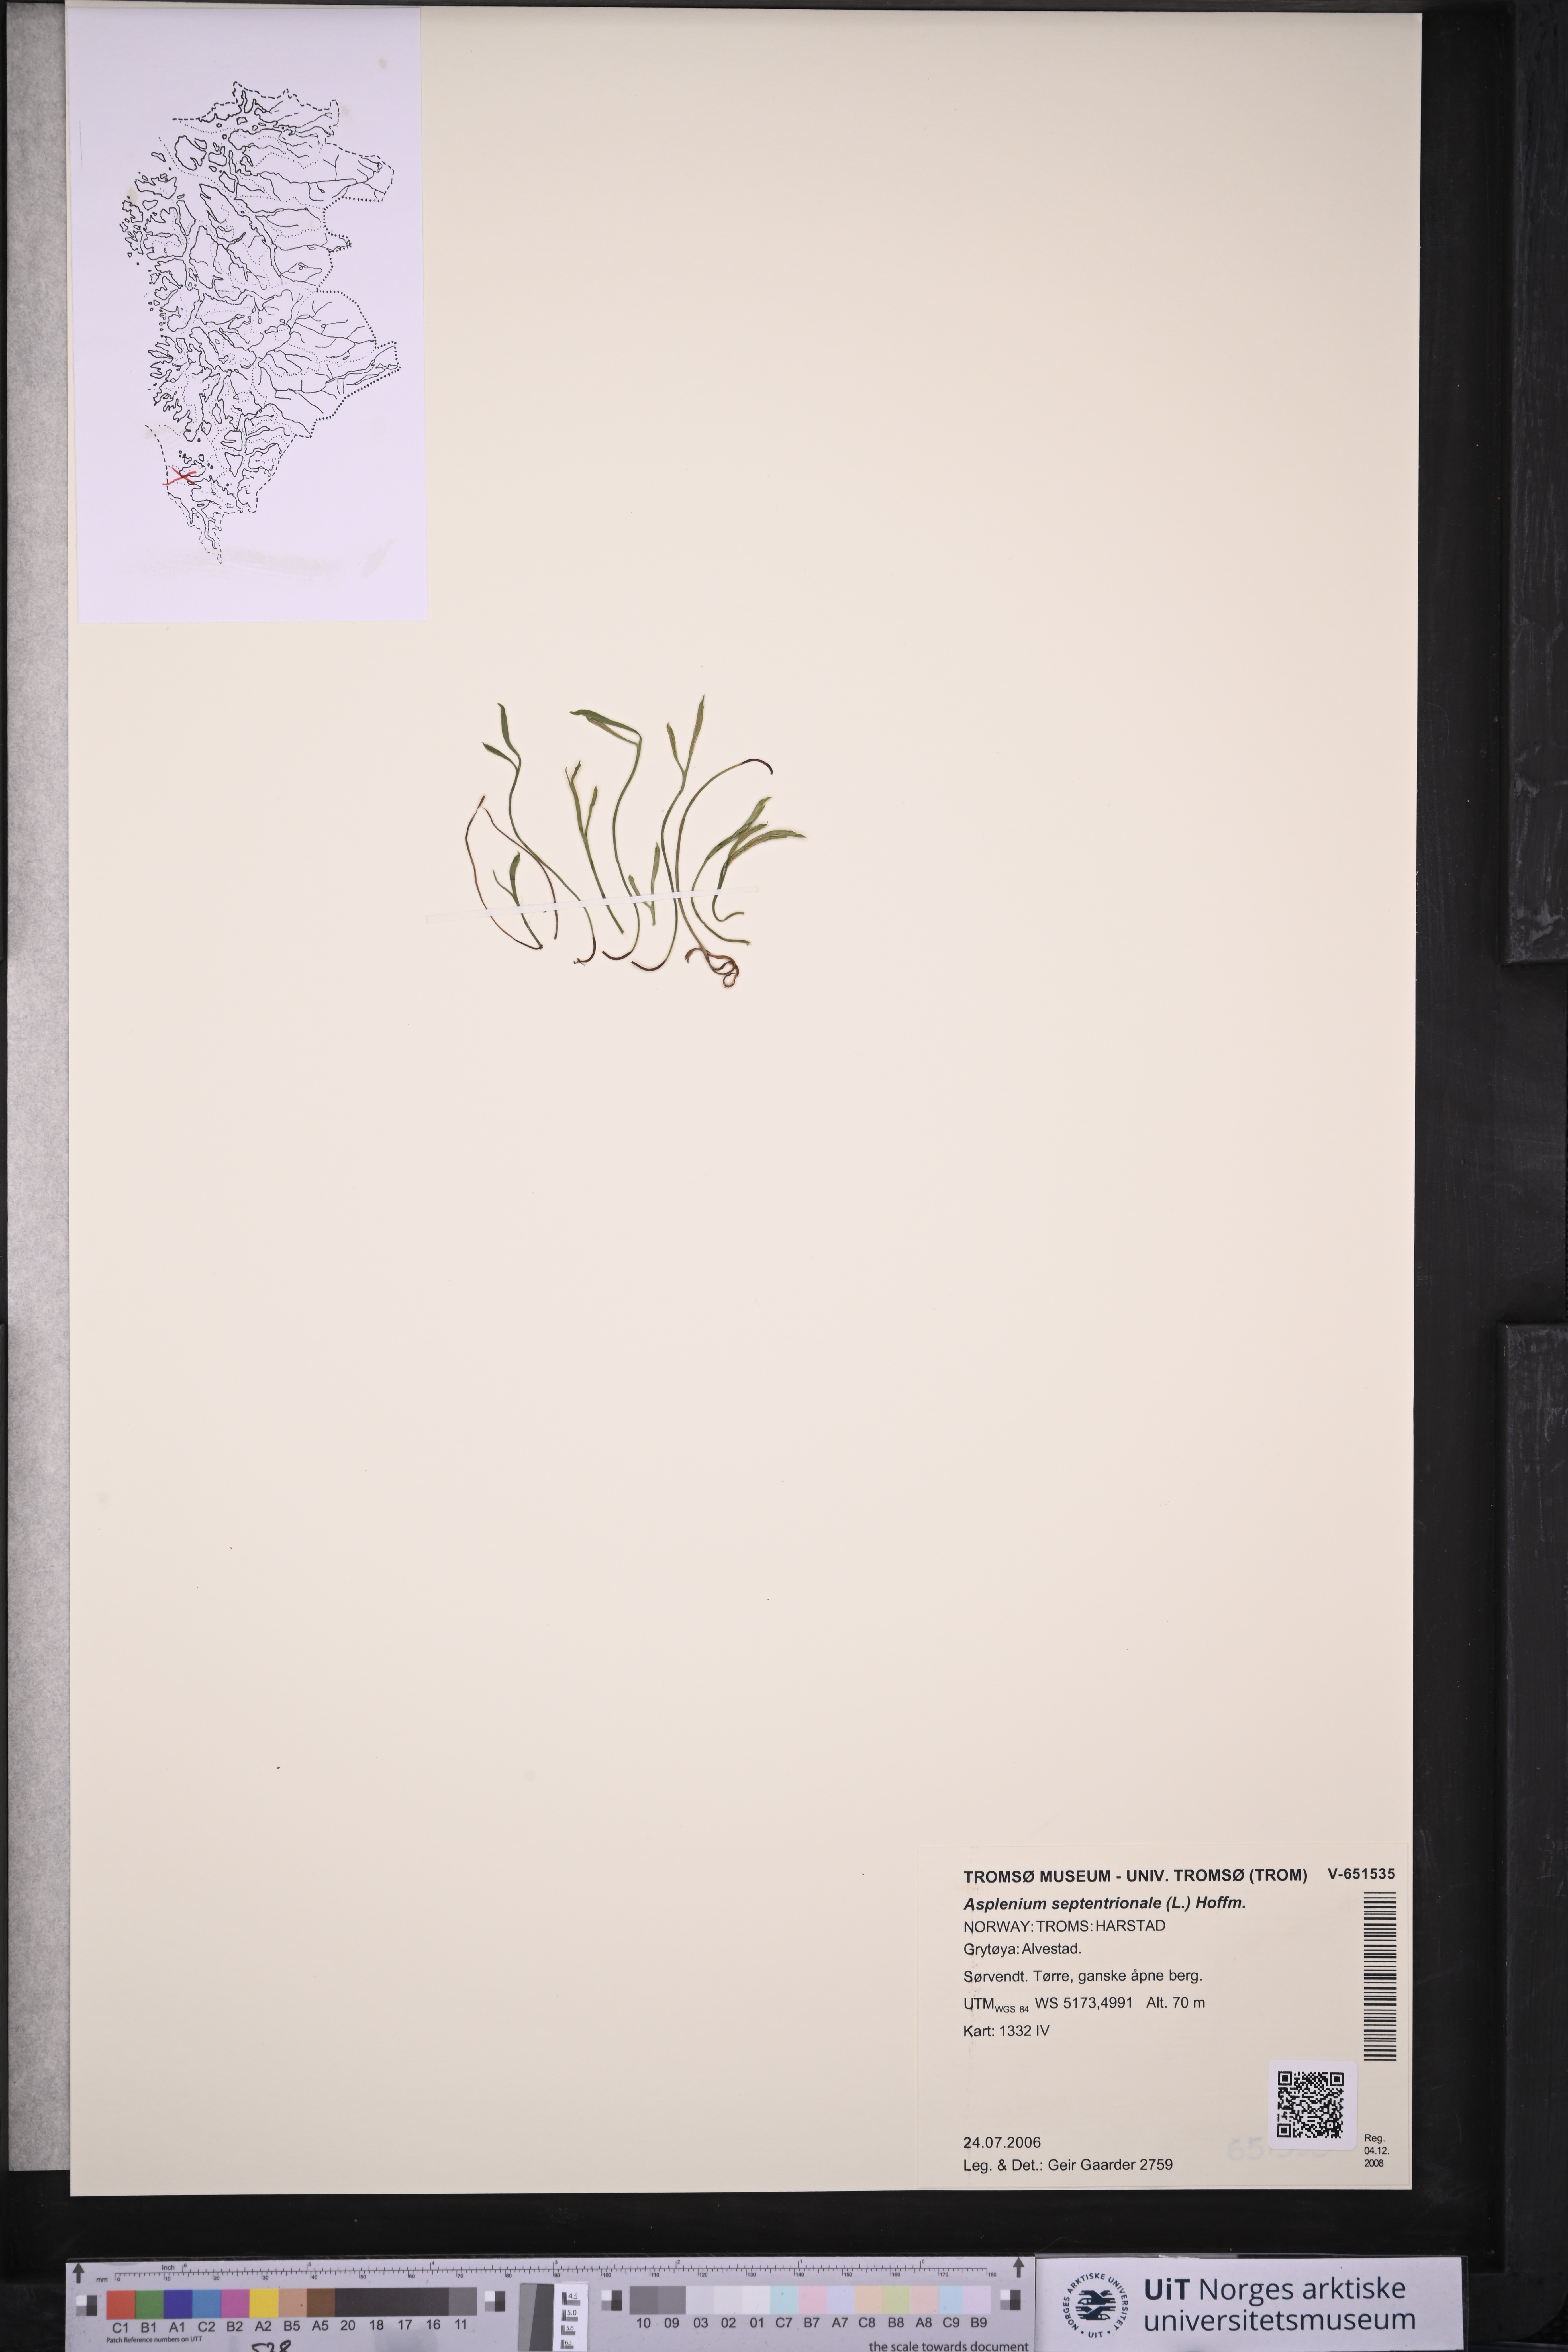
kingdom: Plantae
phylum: Tracheophyta
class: Polypodiopsida
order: Polypodiales
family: Aspleniaceae
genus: Asplenium
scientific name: Asplenium septentrionale
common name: Forked spleenwort
